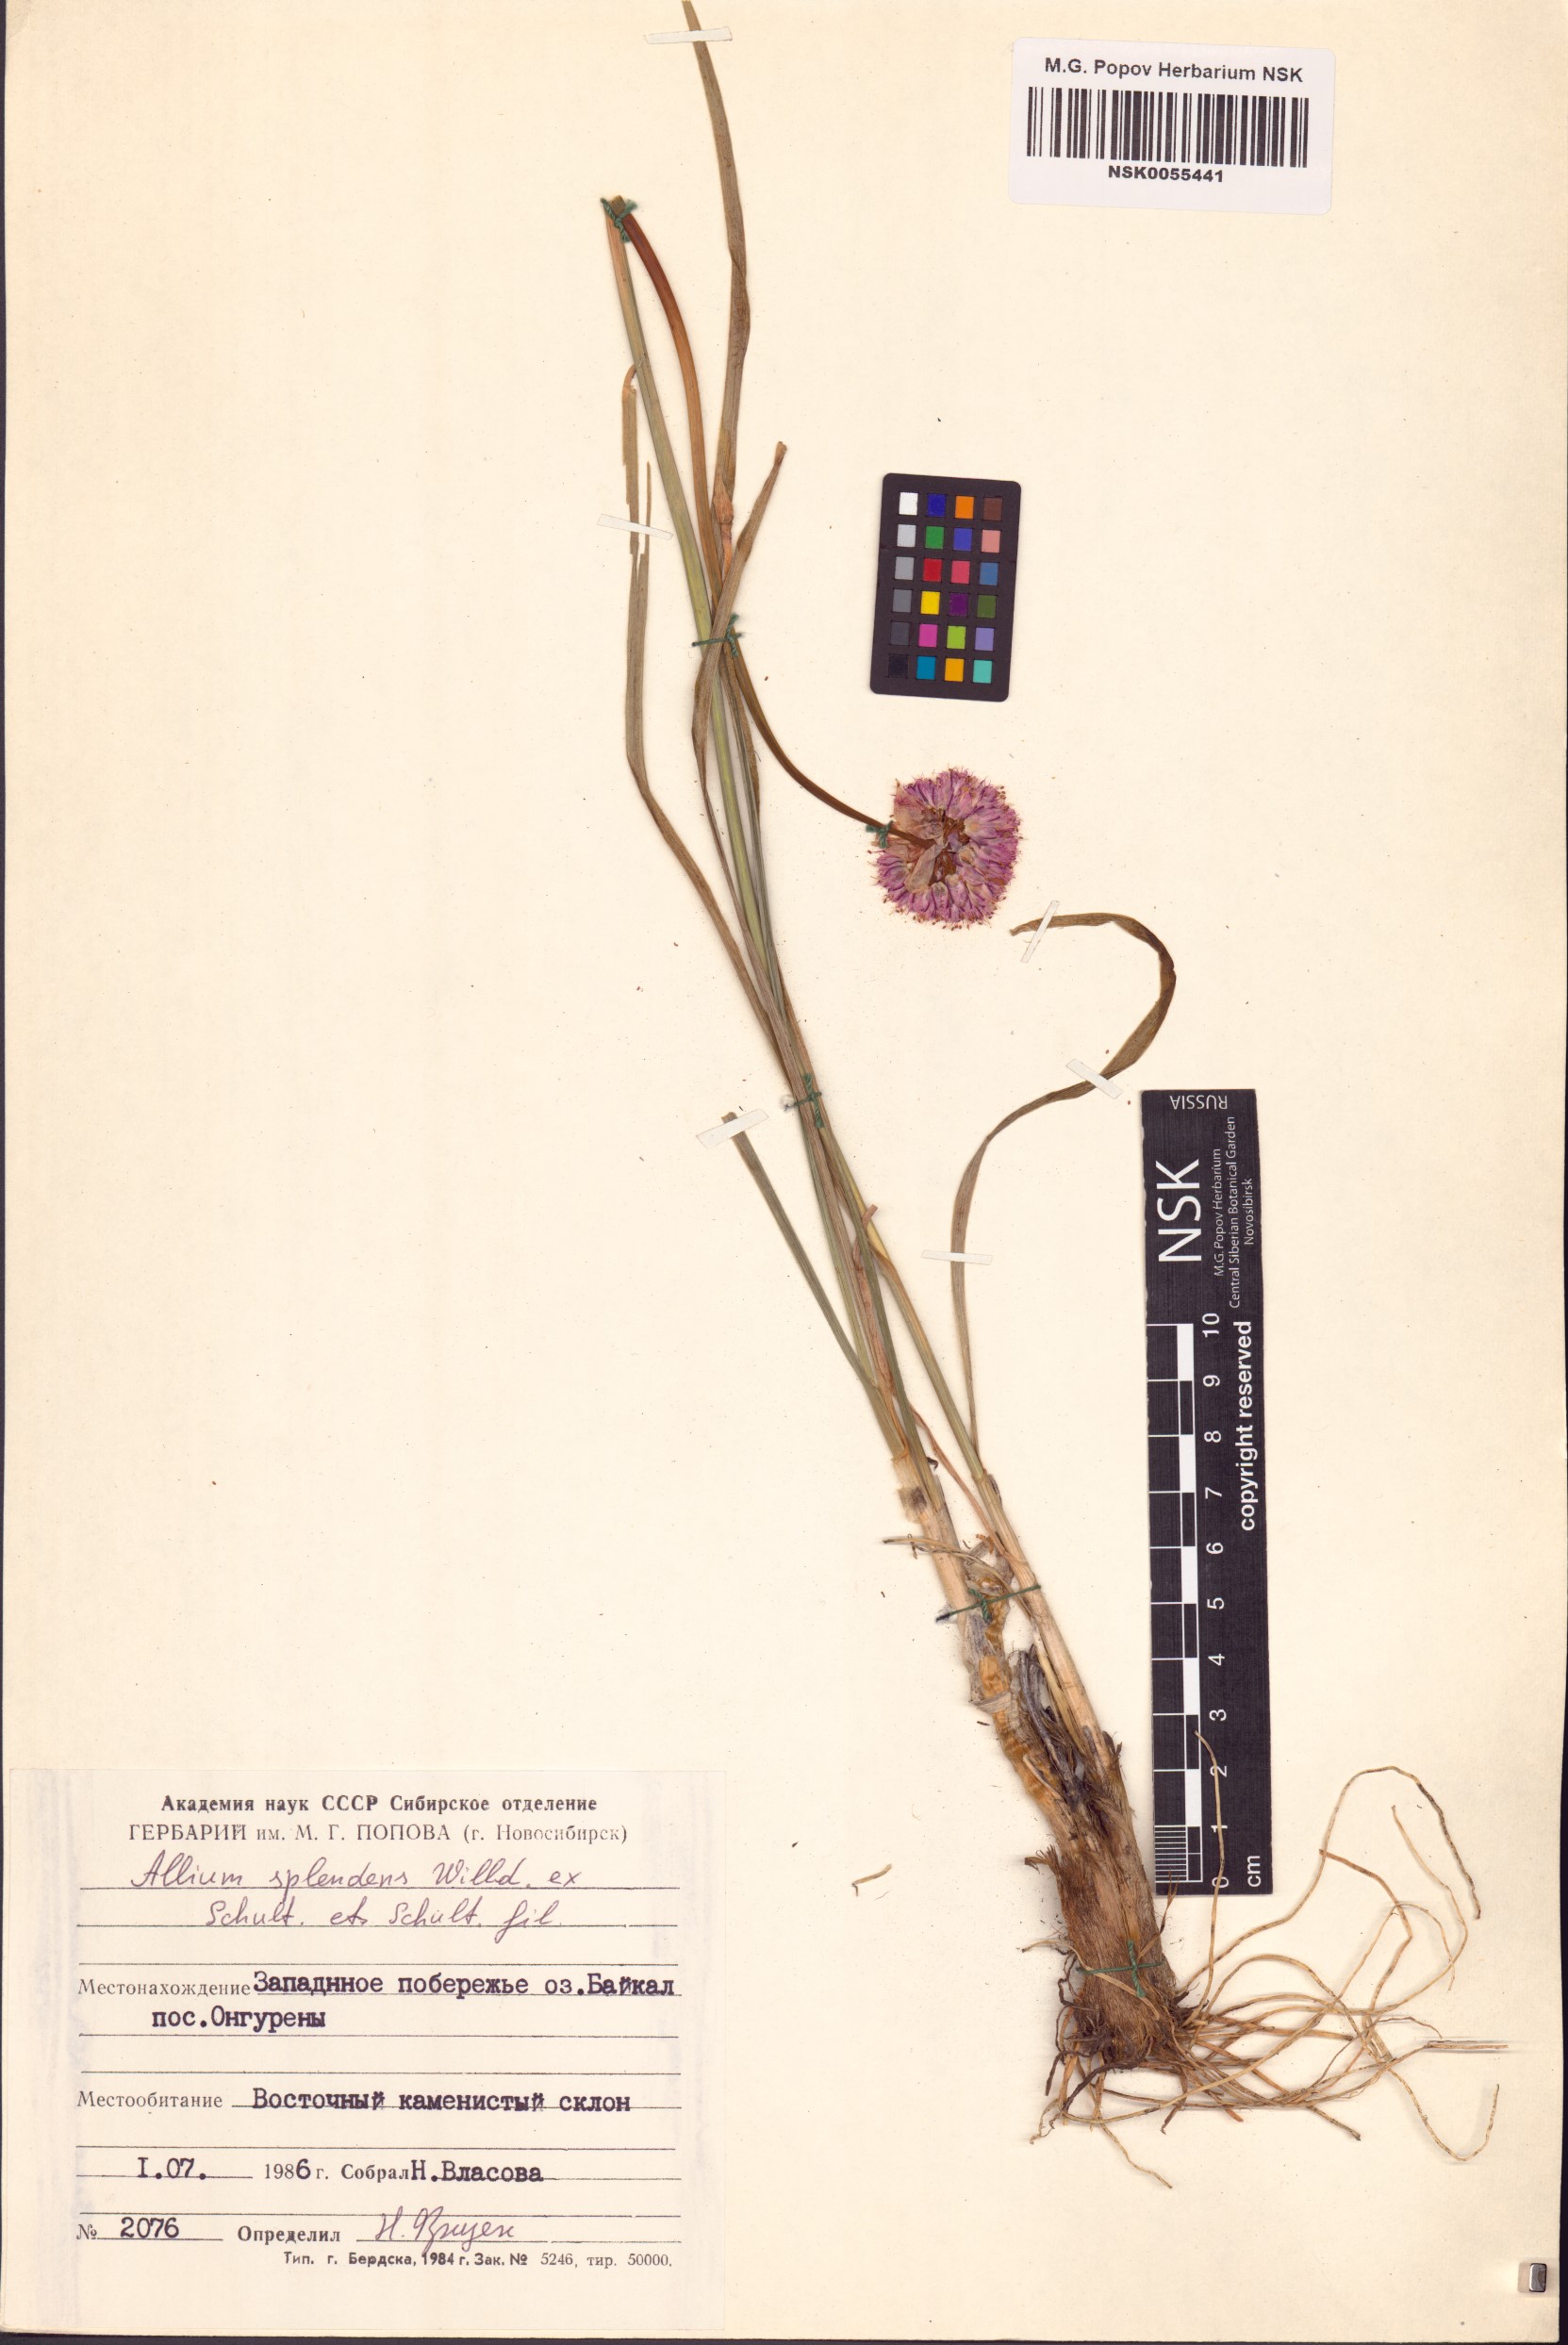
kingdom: Plantae
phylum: Tracheophyta
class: Liliopsida
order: Asparagales
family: Amaryllidaceae
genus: Allium
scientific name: Allium splendens
